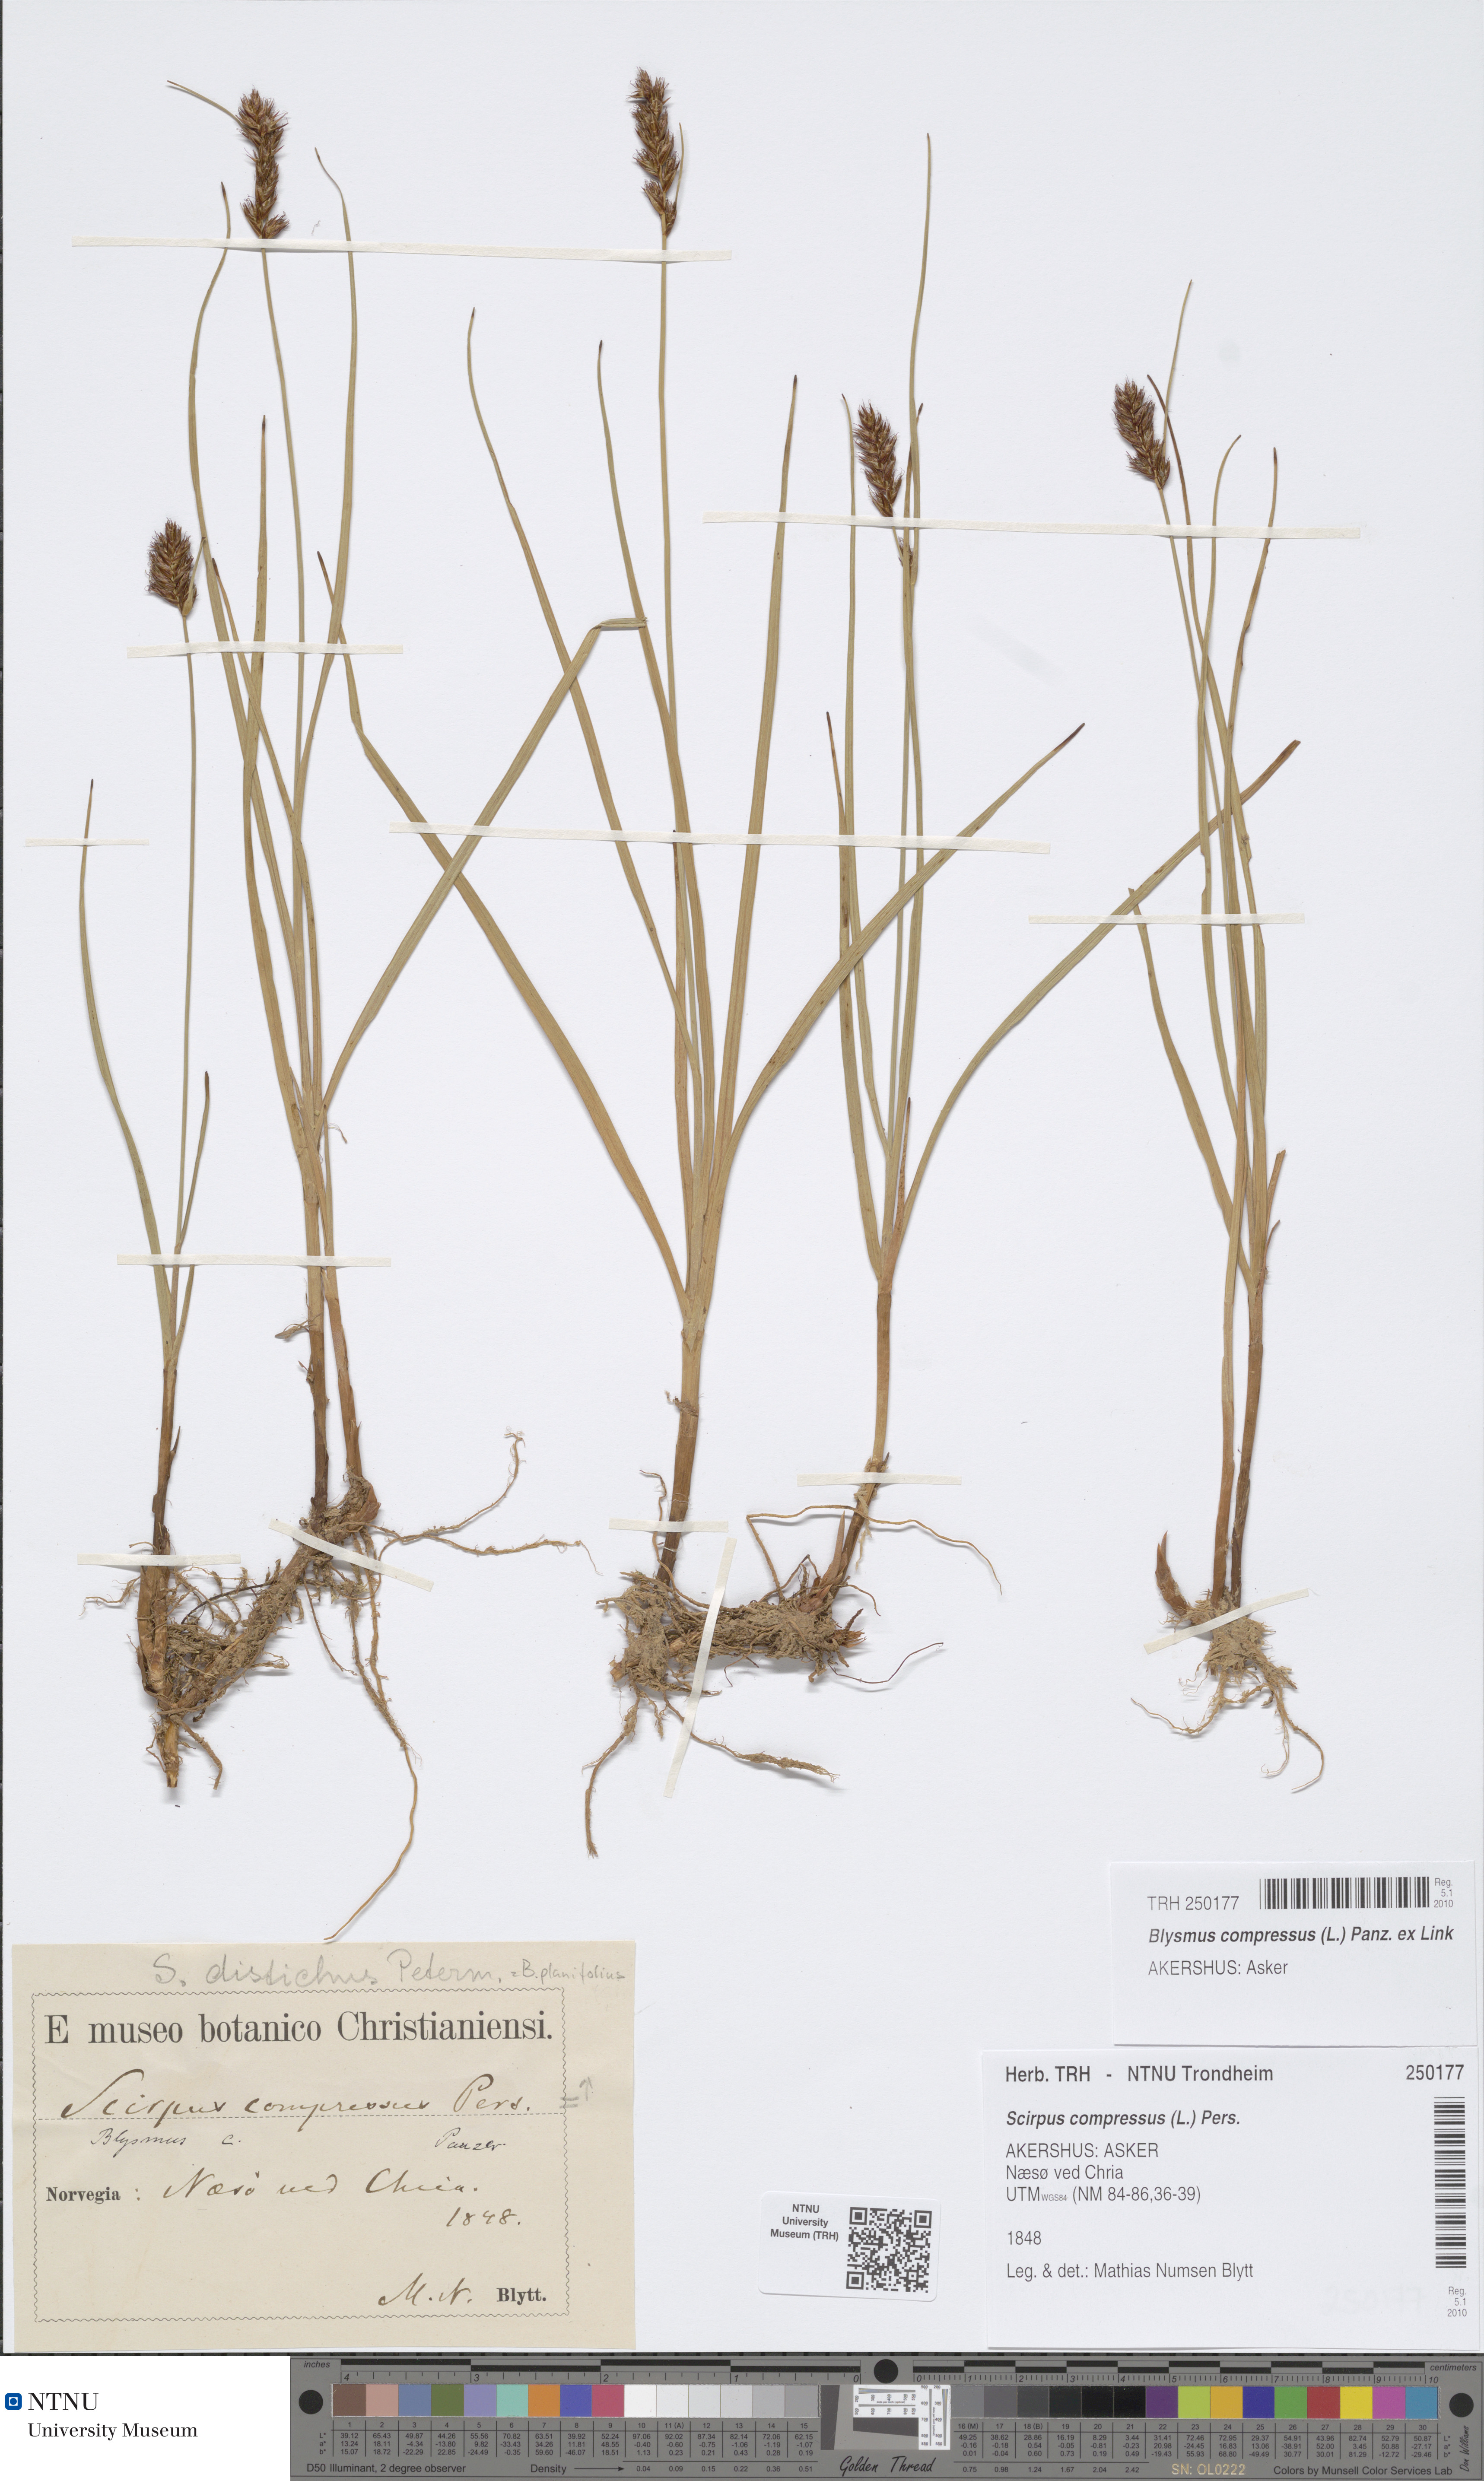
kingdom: Plantae
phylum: Tracheophyta
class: Liliopsida
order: Poales
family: Cyperaceae
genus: Blysmus
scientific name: Blysmus compressus
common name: Flat-sedge
